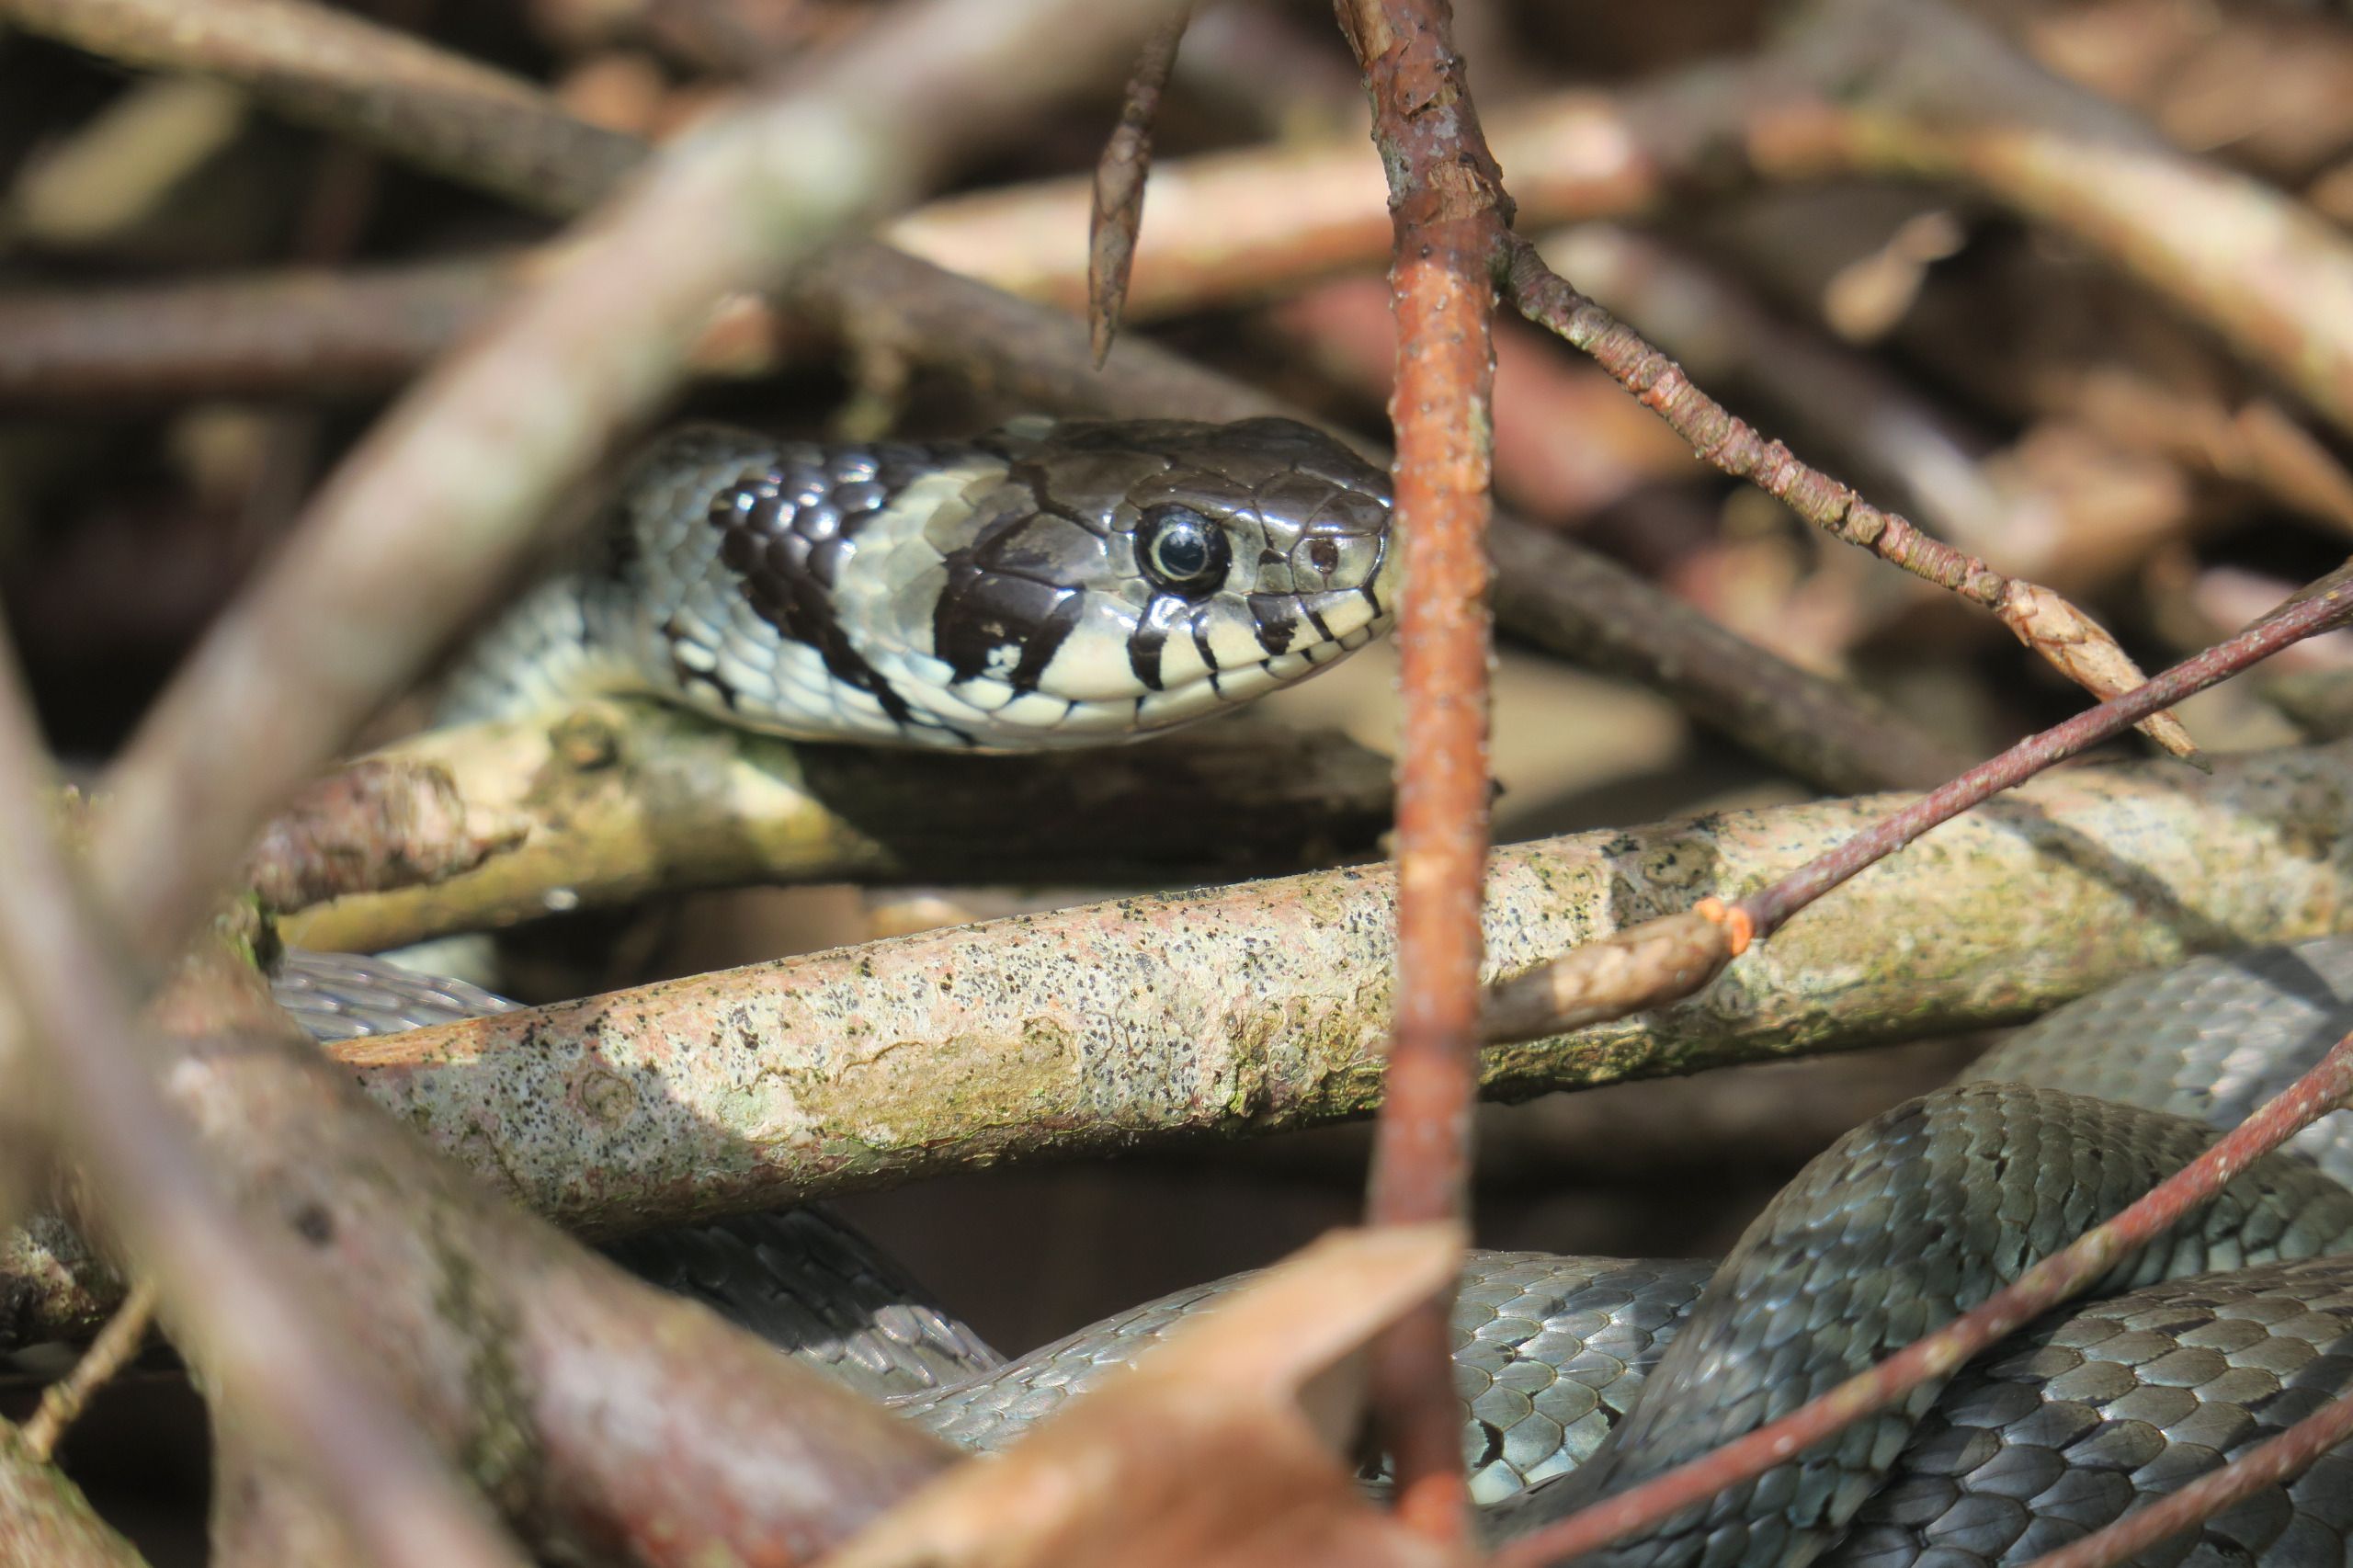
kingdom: Animalia
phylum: Chordata
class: Squamata
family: Colubridae
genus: Natrix
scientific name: Natrix natrix
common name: Snog
